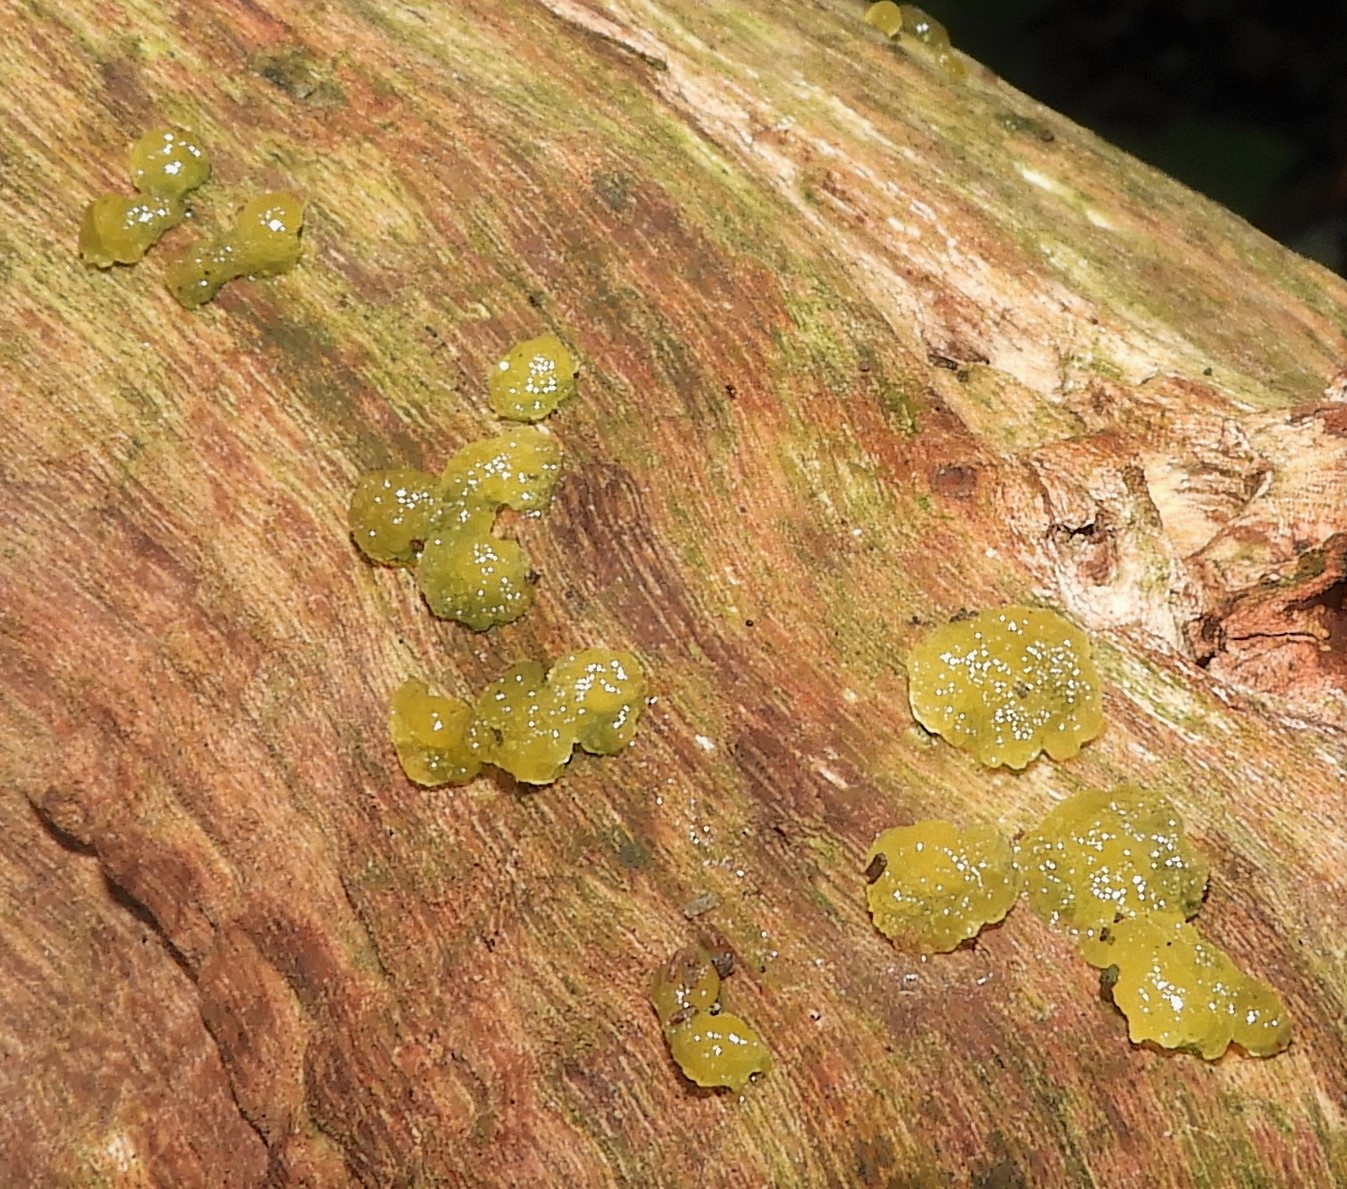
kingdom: Fungi
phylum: Basidiomycota
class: Dacrymycetes
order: Dacrymycetales
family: Dacrymycetaceae
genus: Dacrymyces
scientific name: Dacrymyces
